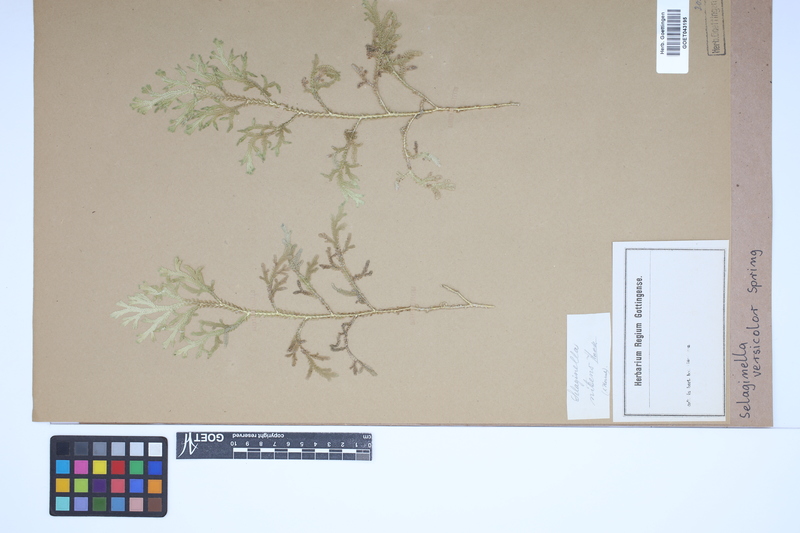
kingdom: Plantae
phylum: Tracheophyta
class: Lycopodiopsida
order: Selaginellales
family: Selaginellaceae
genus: Selaginella
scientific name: Selaginella versicolor
